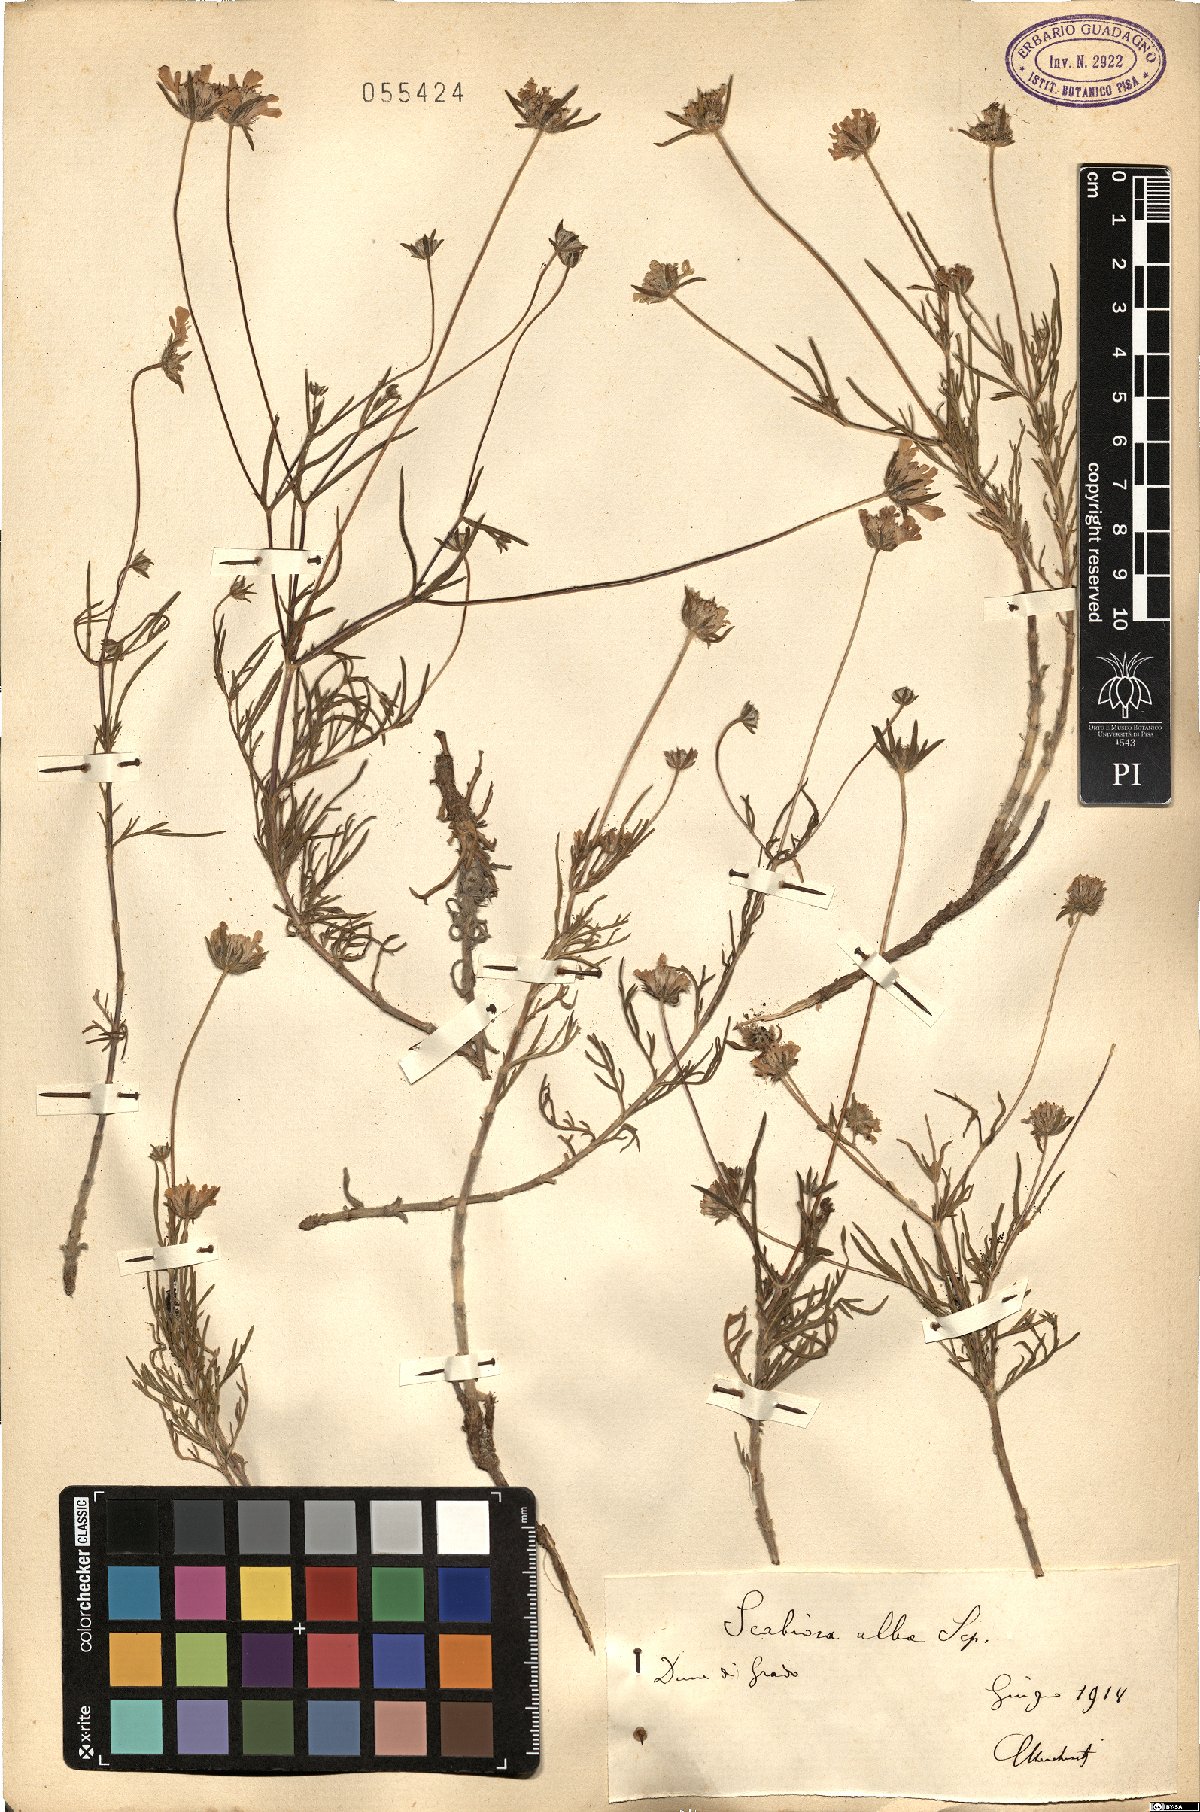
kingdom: Plantae
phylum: Tracheophyta
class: Magnoliopsida
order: Dipsacales
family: Caprifoliaceae
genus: Lomelosia
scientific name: Lomelosia argentea
